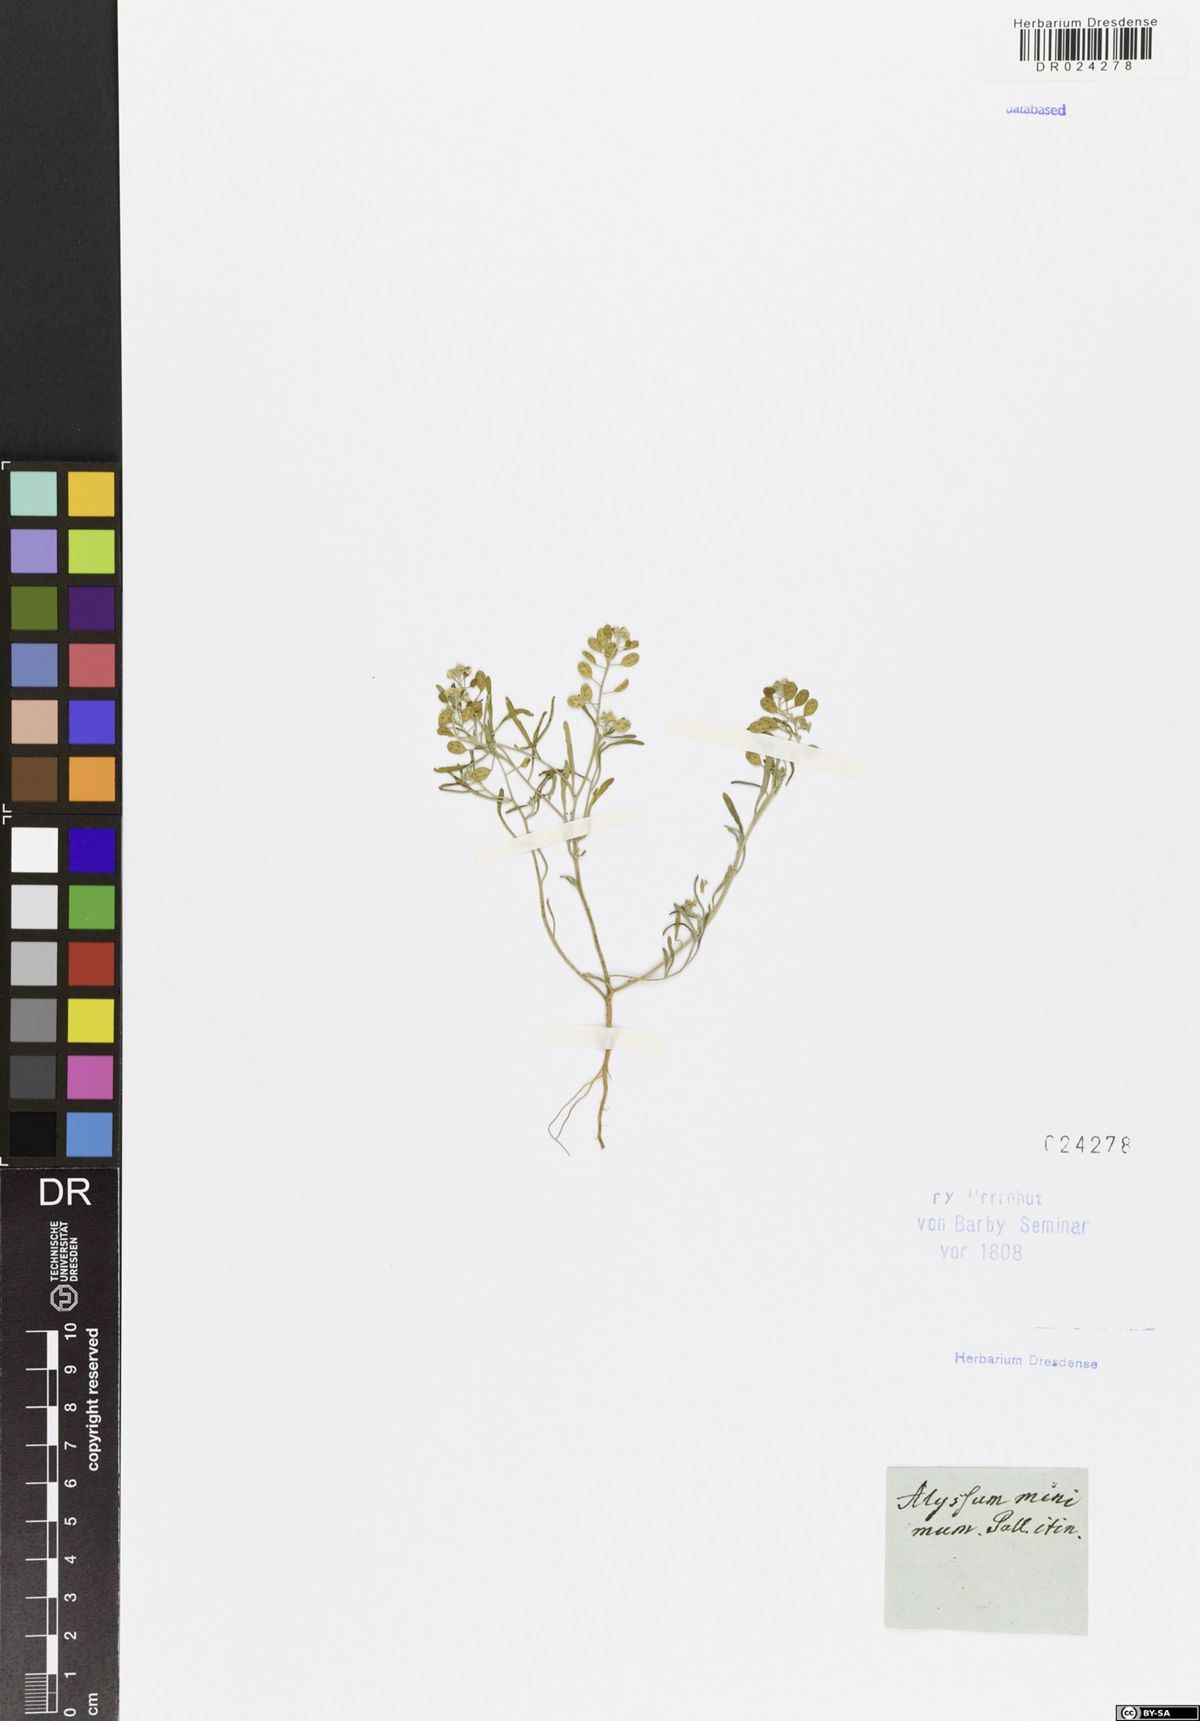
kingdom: Plantae
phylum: Tracheophyta
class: Magnoliopsida
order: Brassicales
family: Brassicaceae
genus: Meniocus
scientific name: Meniocus linifolius
